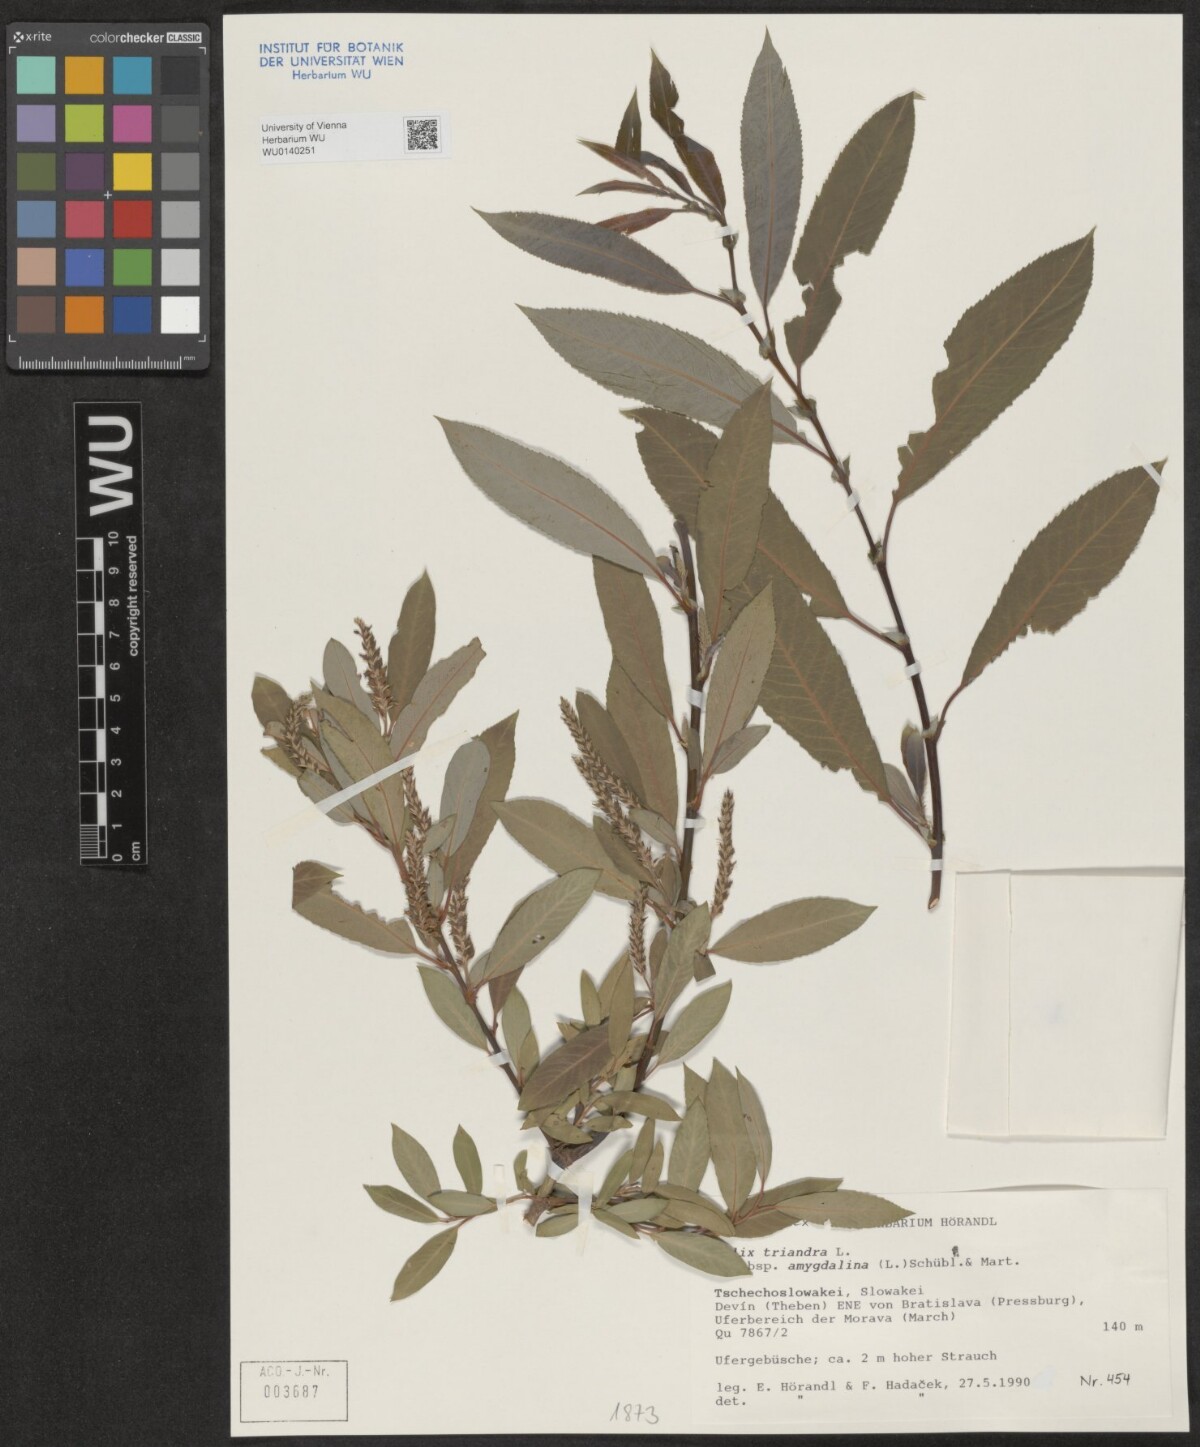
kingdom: Plantae
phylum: Tracheophyta
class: Magnoliopsida
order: Malpighiales
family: Salicaceae
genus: Salix
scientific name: Salix triandra
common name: Almond willow
